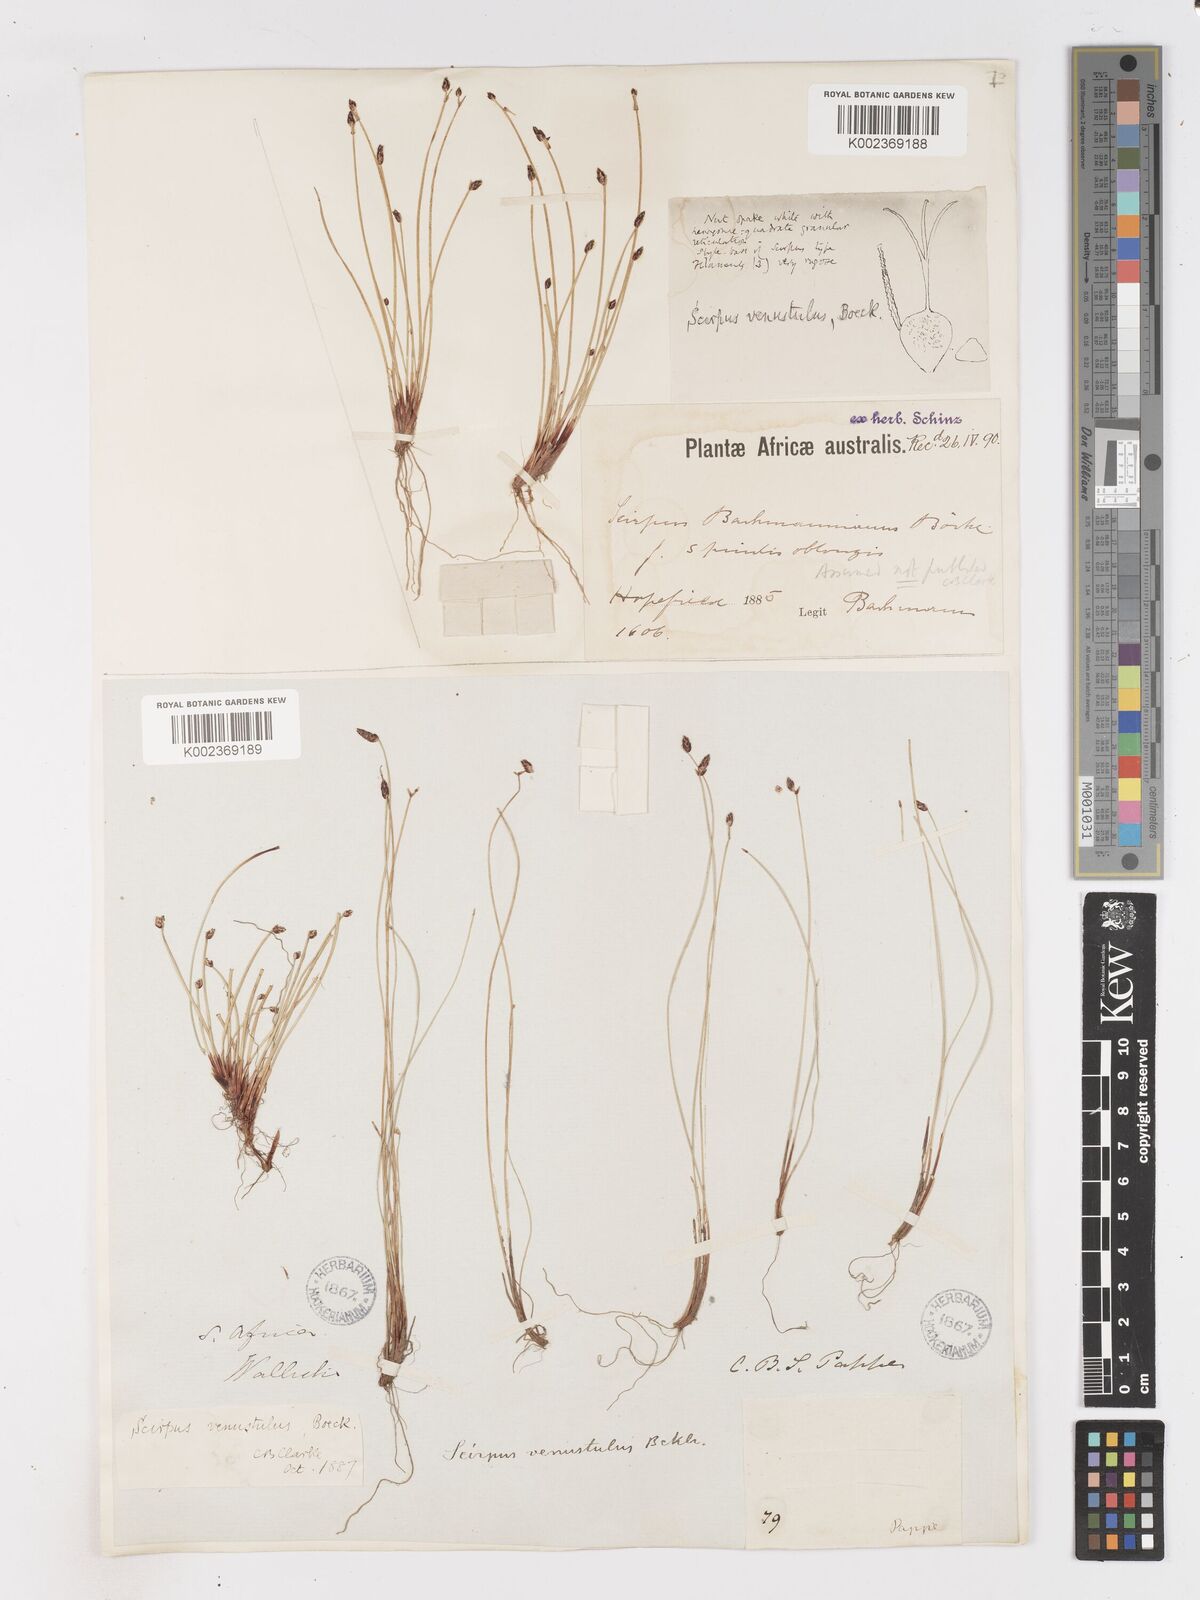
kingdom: Plantae
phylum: Tracheophyta
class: Liliopsida
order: Poales
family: Cyperaceae
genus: Isolepis
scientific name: Isolepis venustula
